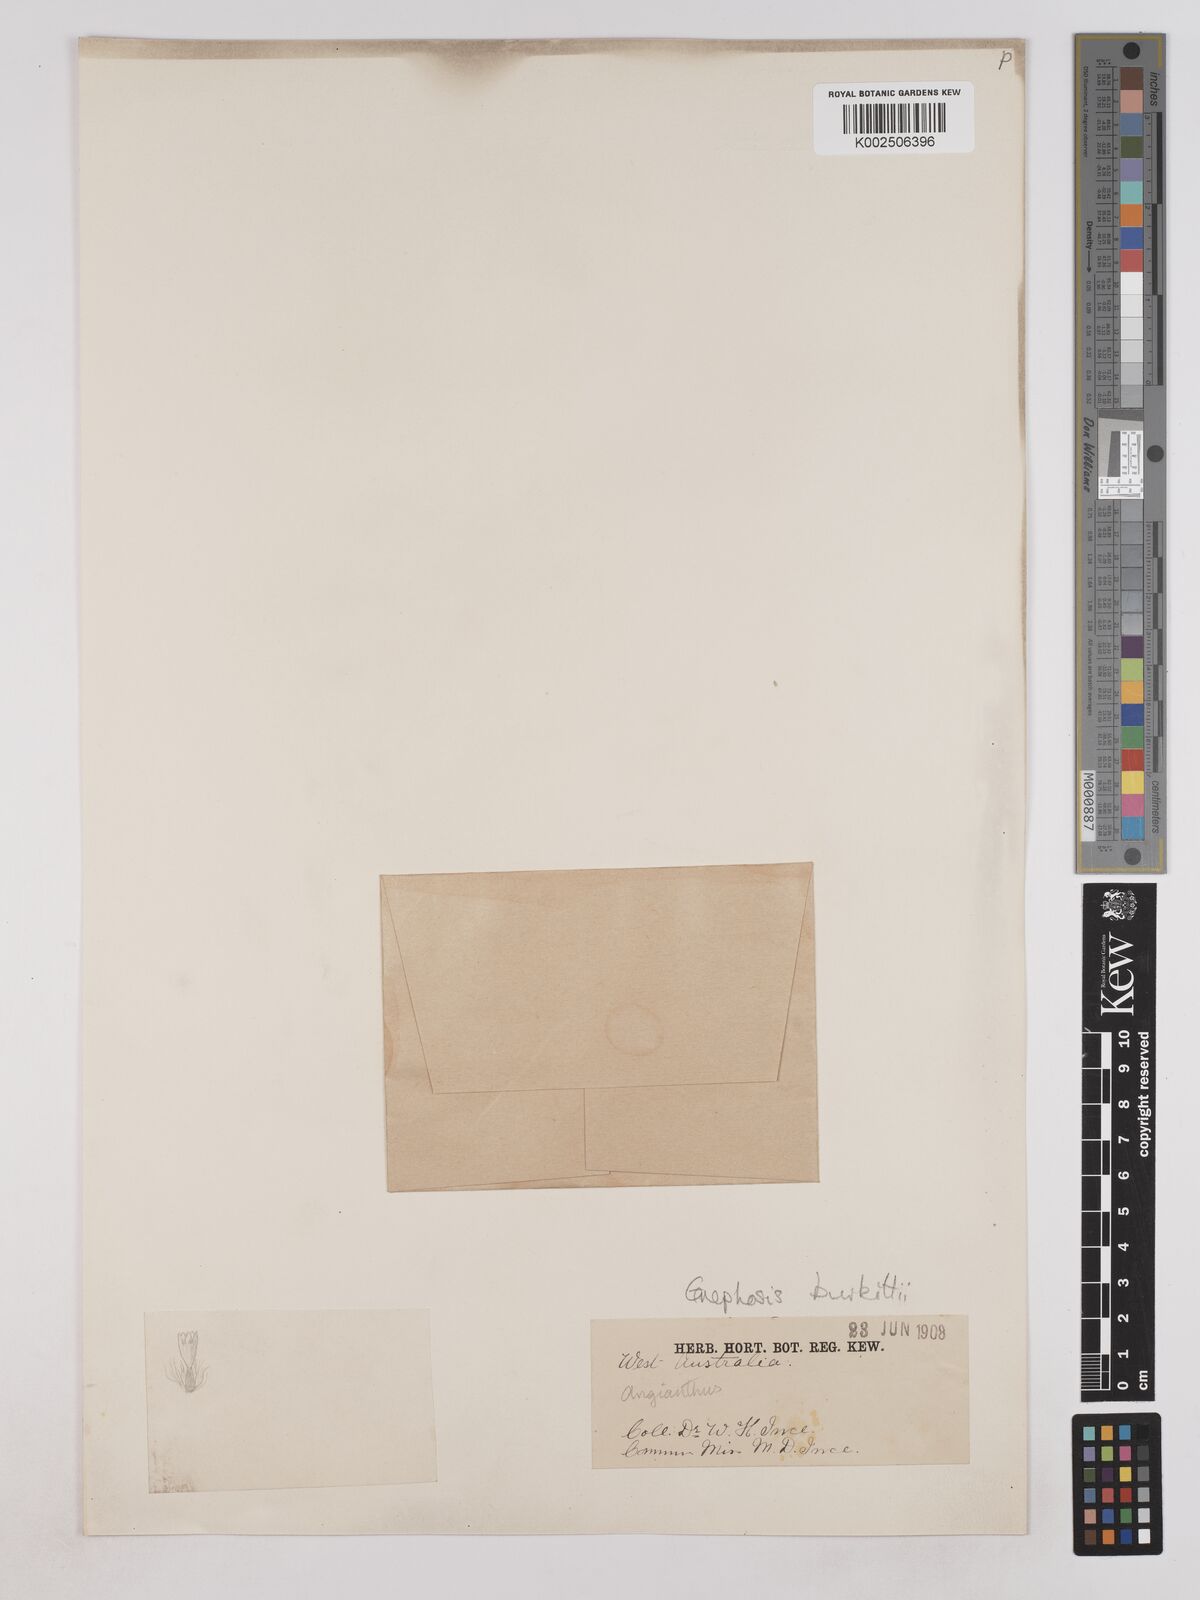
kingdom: Plantae
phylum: Tracheophyta
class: Magnoliopsida
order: Asterales
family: Asteraceae
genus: Lemooria
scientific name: Lemooria burkittii
